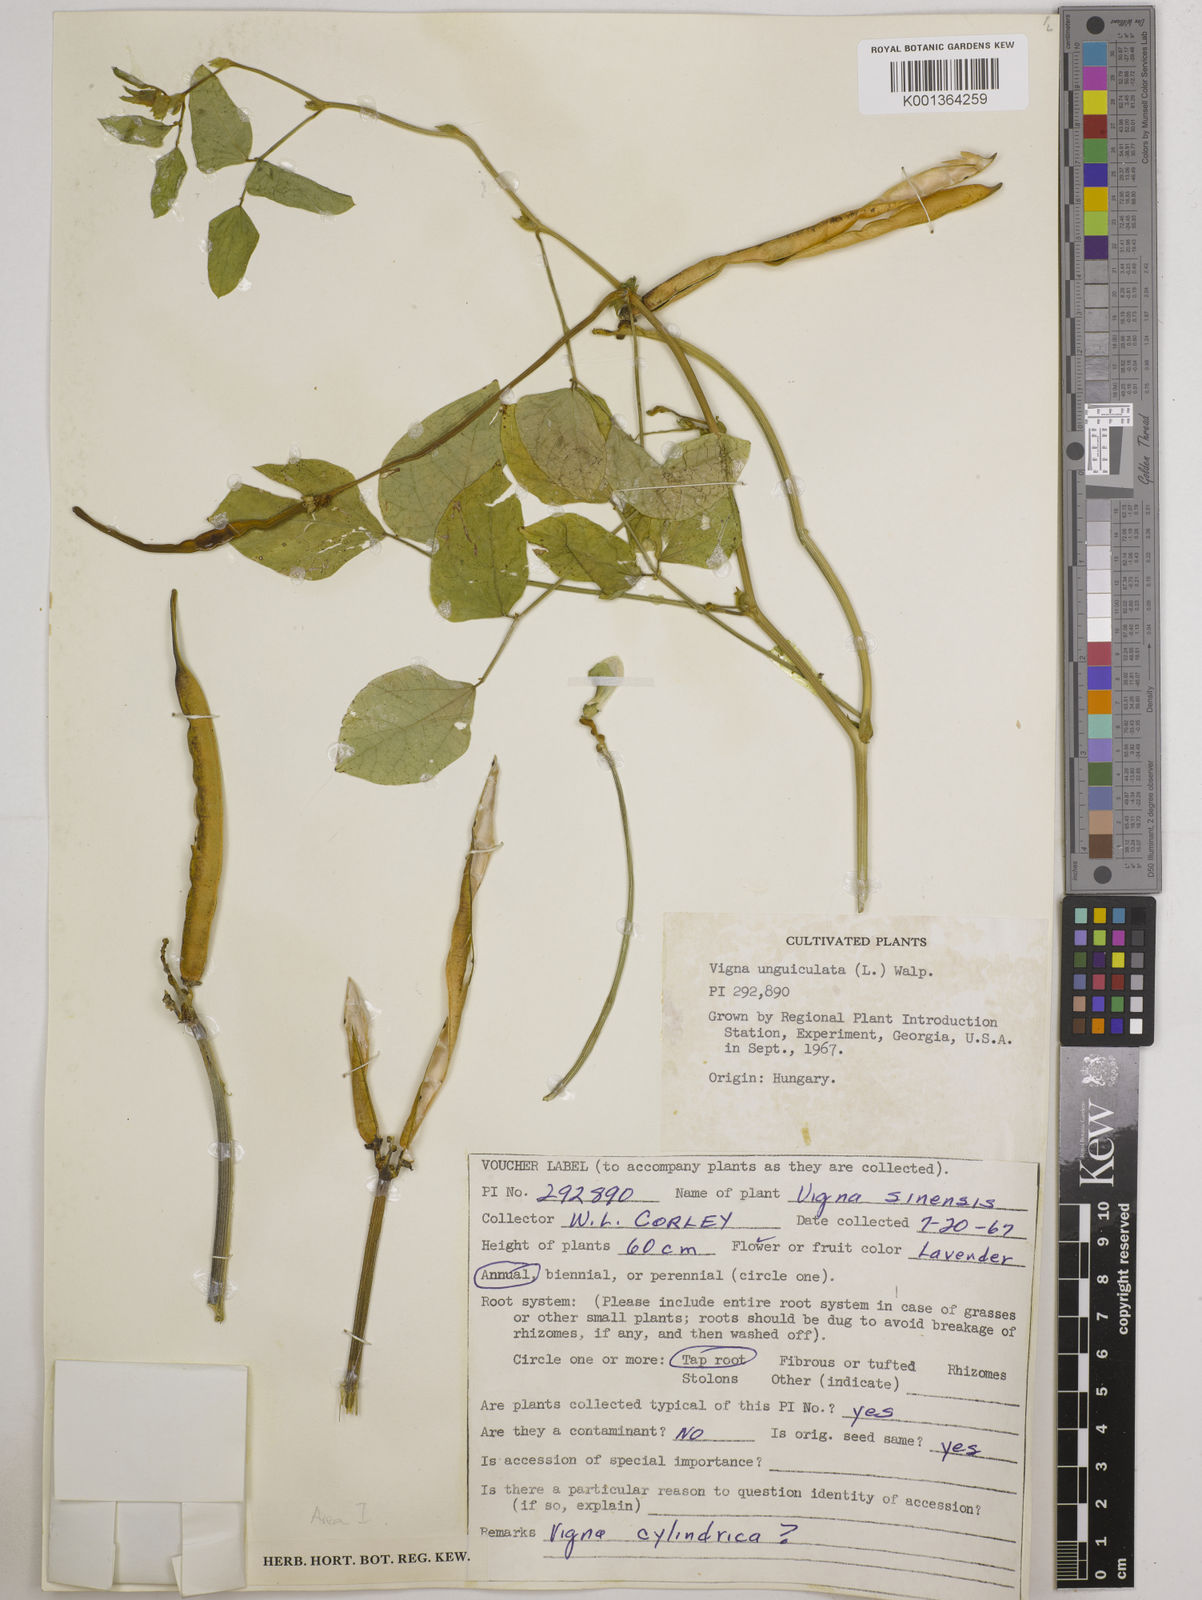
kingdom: Plantae
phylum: Tracheophyta
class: Magnoliopsida
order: Fabales
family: Fabaceae
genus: Vigna
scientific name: Vigna
